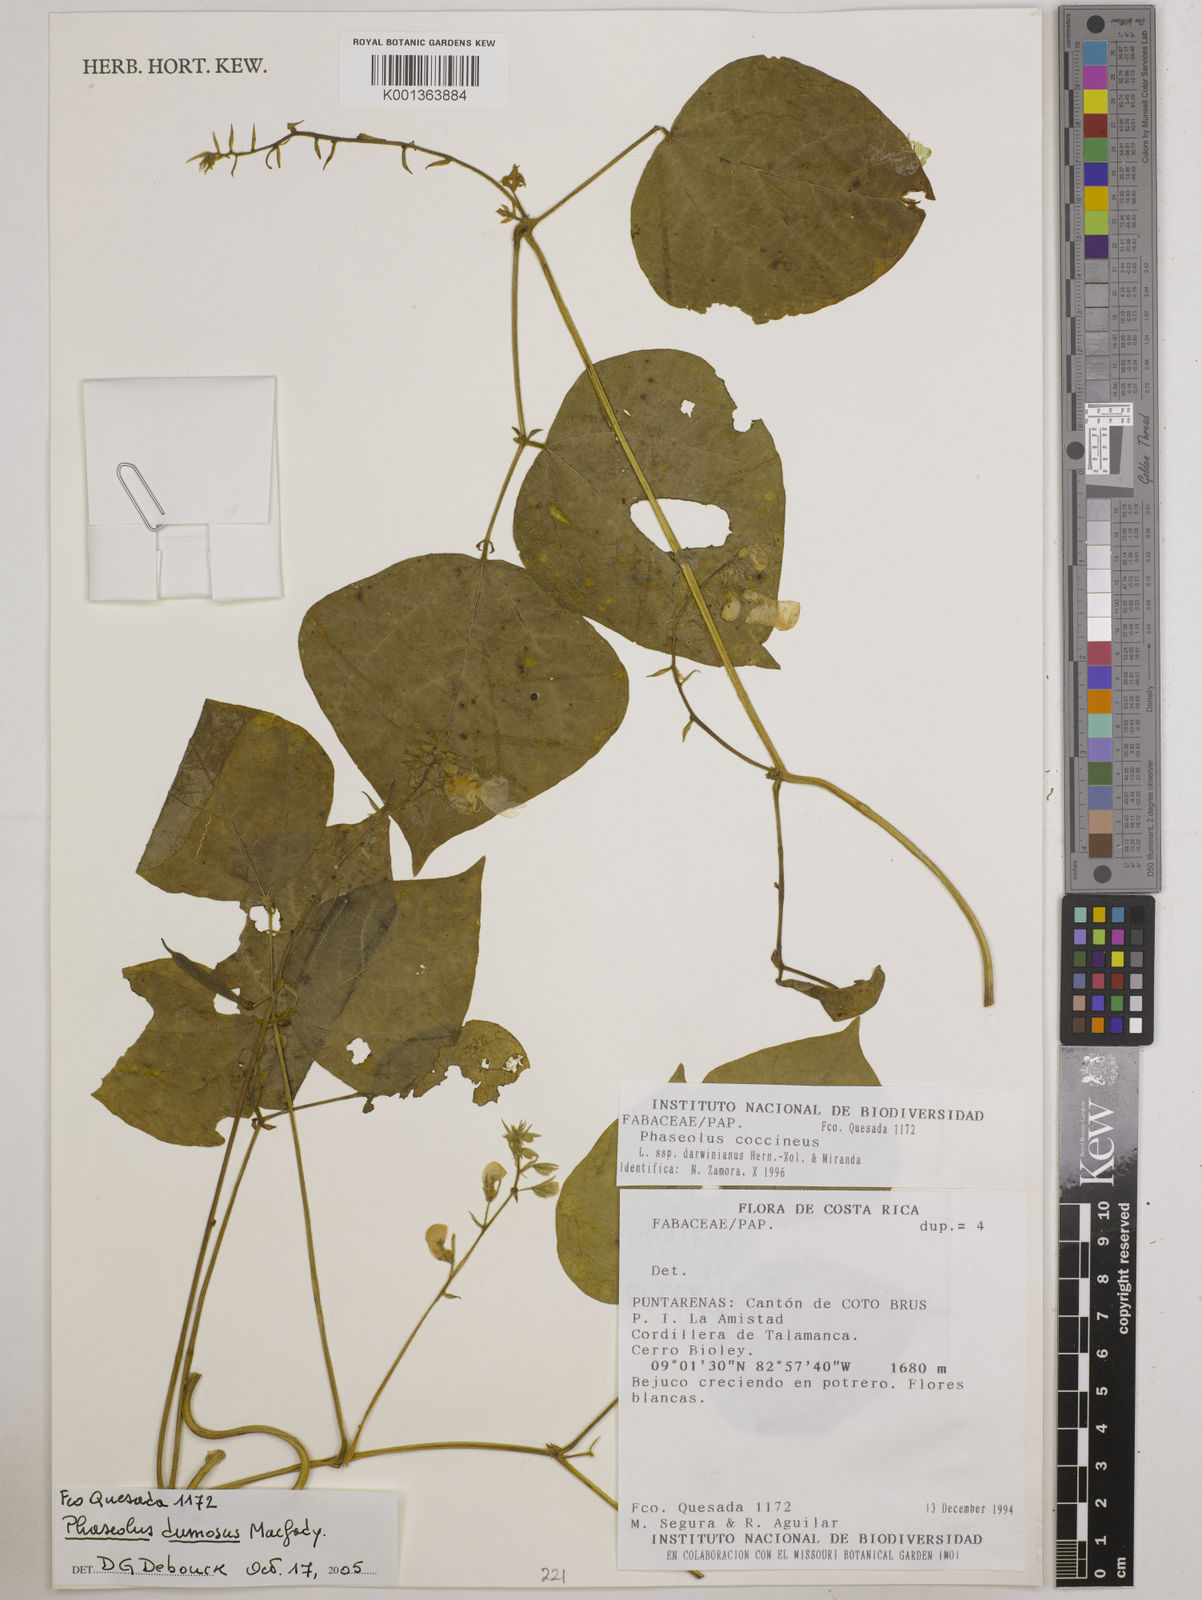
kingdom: Plantae
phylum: Tracheophyta
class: Magnoliopsida
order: Fabales
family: Fabaceae
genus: Phaseolus
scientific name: Phaseolus dumosus
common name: Year bean
